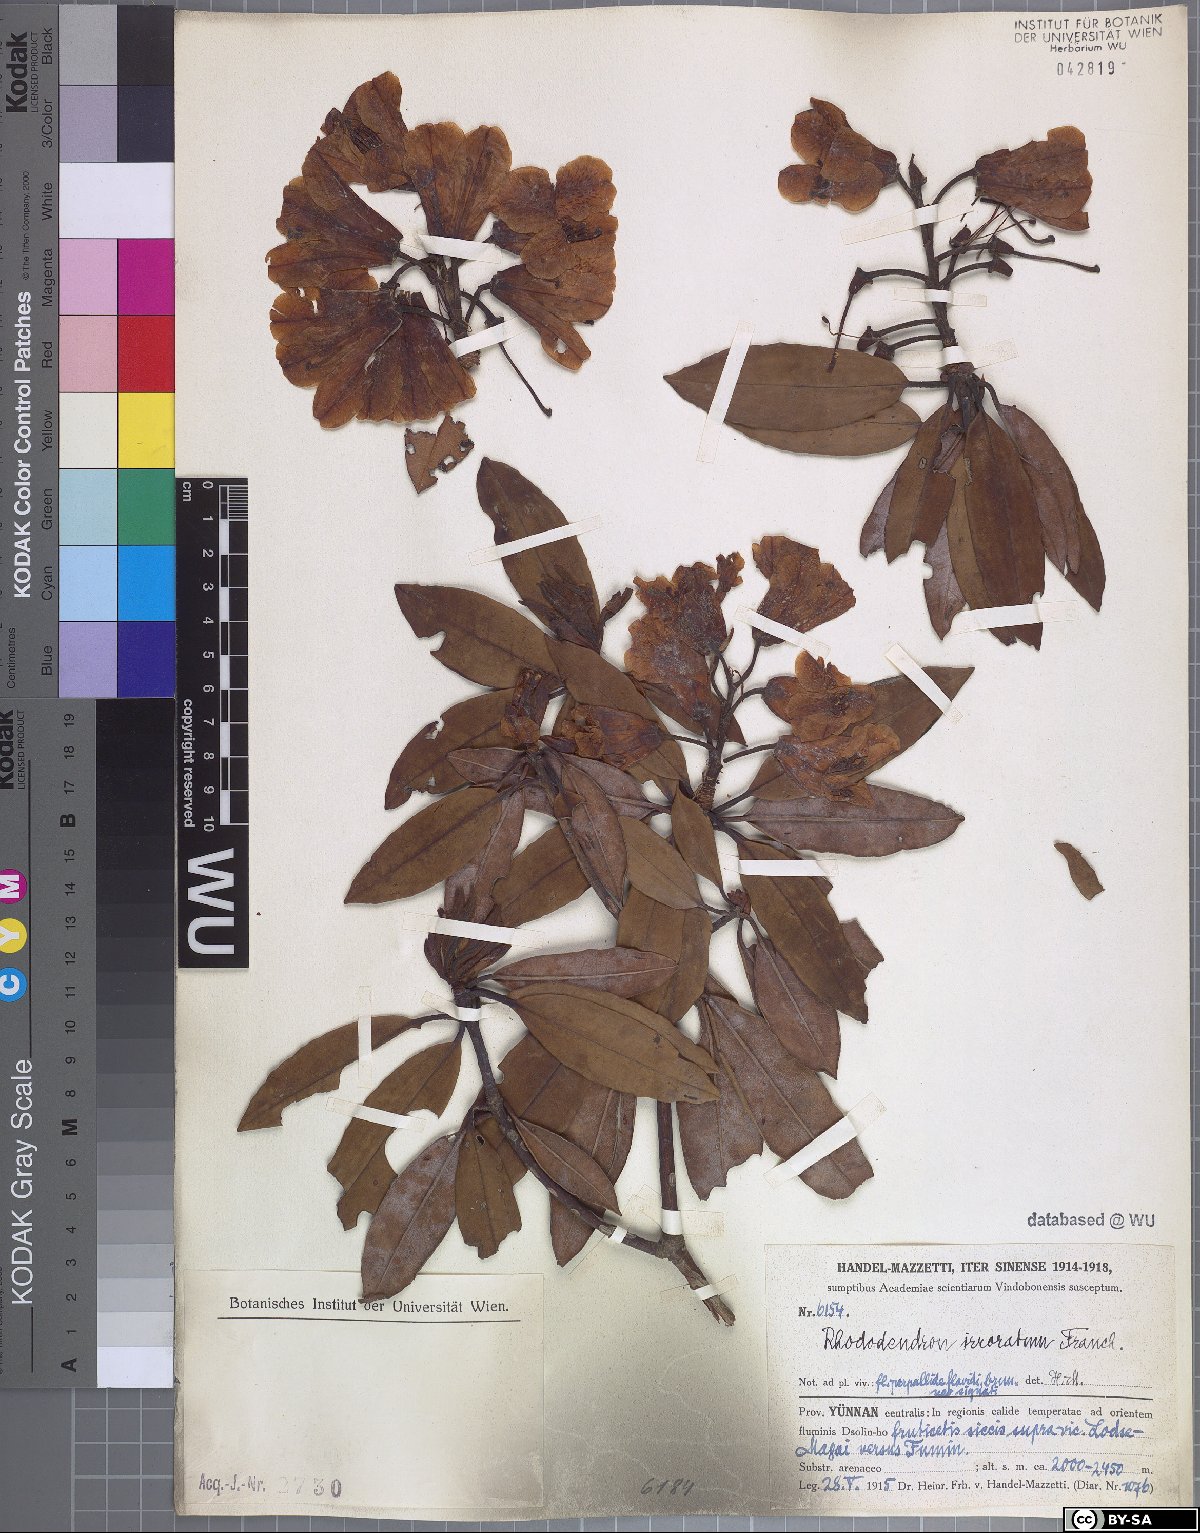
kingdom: Plantae
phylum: Tracheophyta
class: Magnoliopsida
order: Ericales
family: Ericaceae
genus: Rhododendron
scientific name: Rhododendron irroratum
